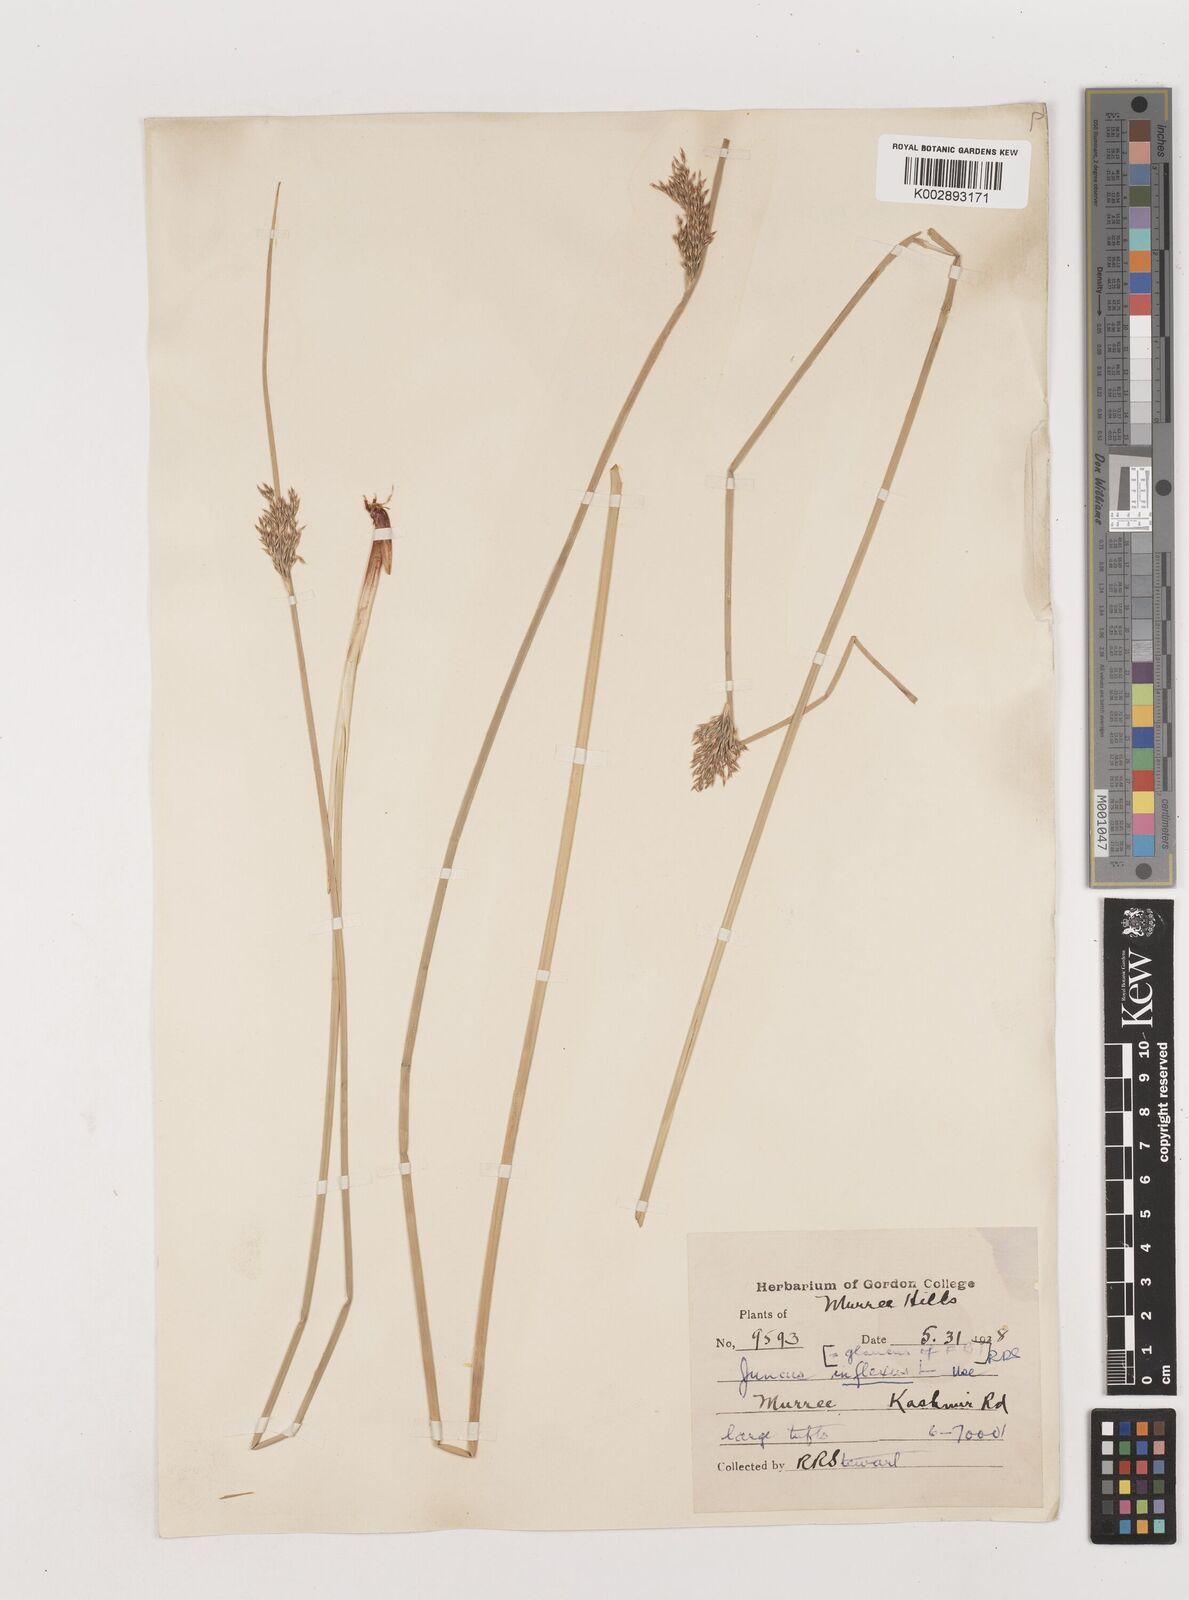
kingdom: Plantae
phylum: Tracheophyta
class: Liliopsida
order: Poales
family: Juncaceae
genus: Juncus
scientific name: Juncus inflexus
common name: Hard rush
